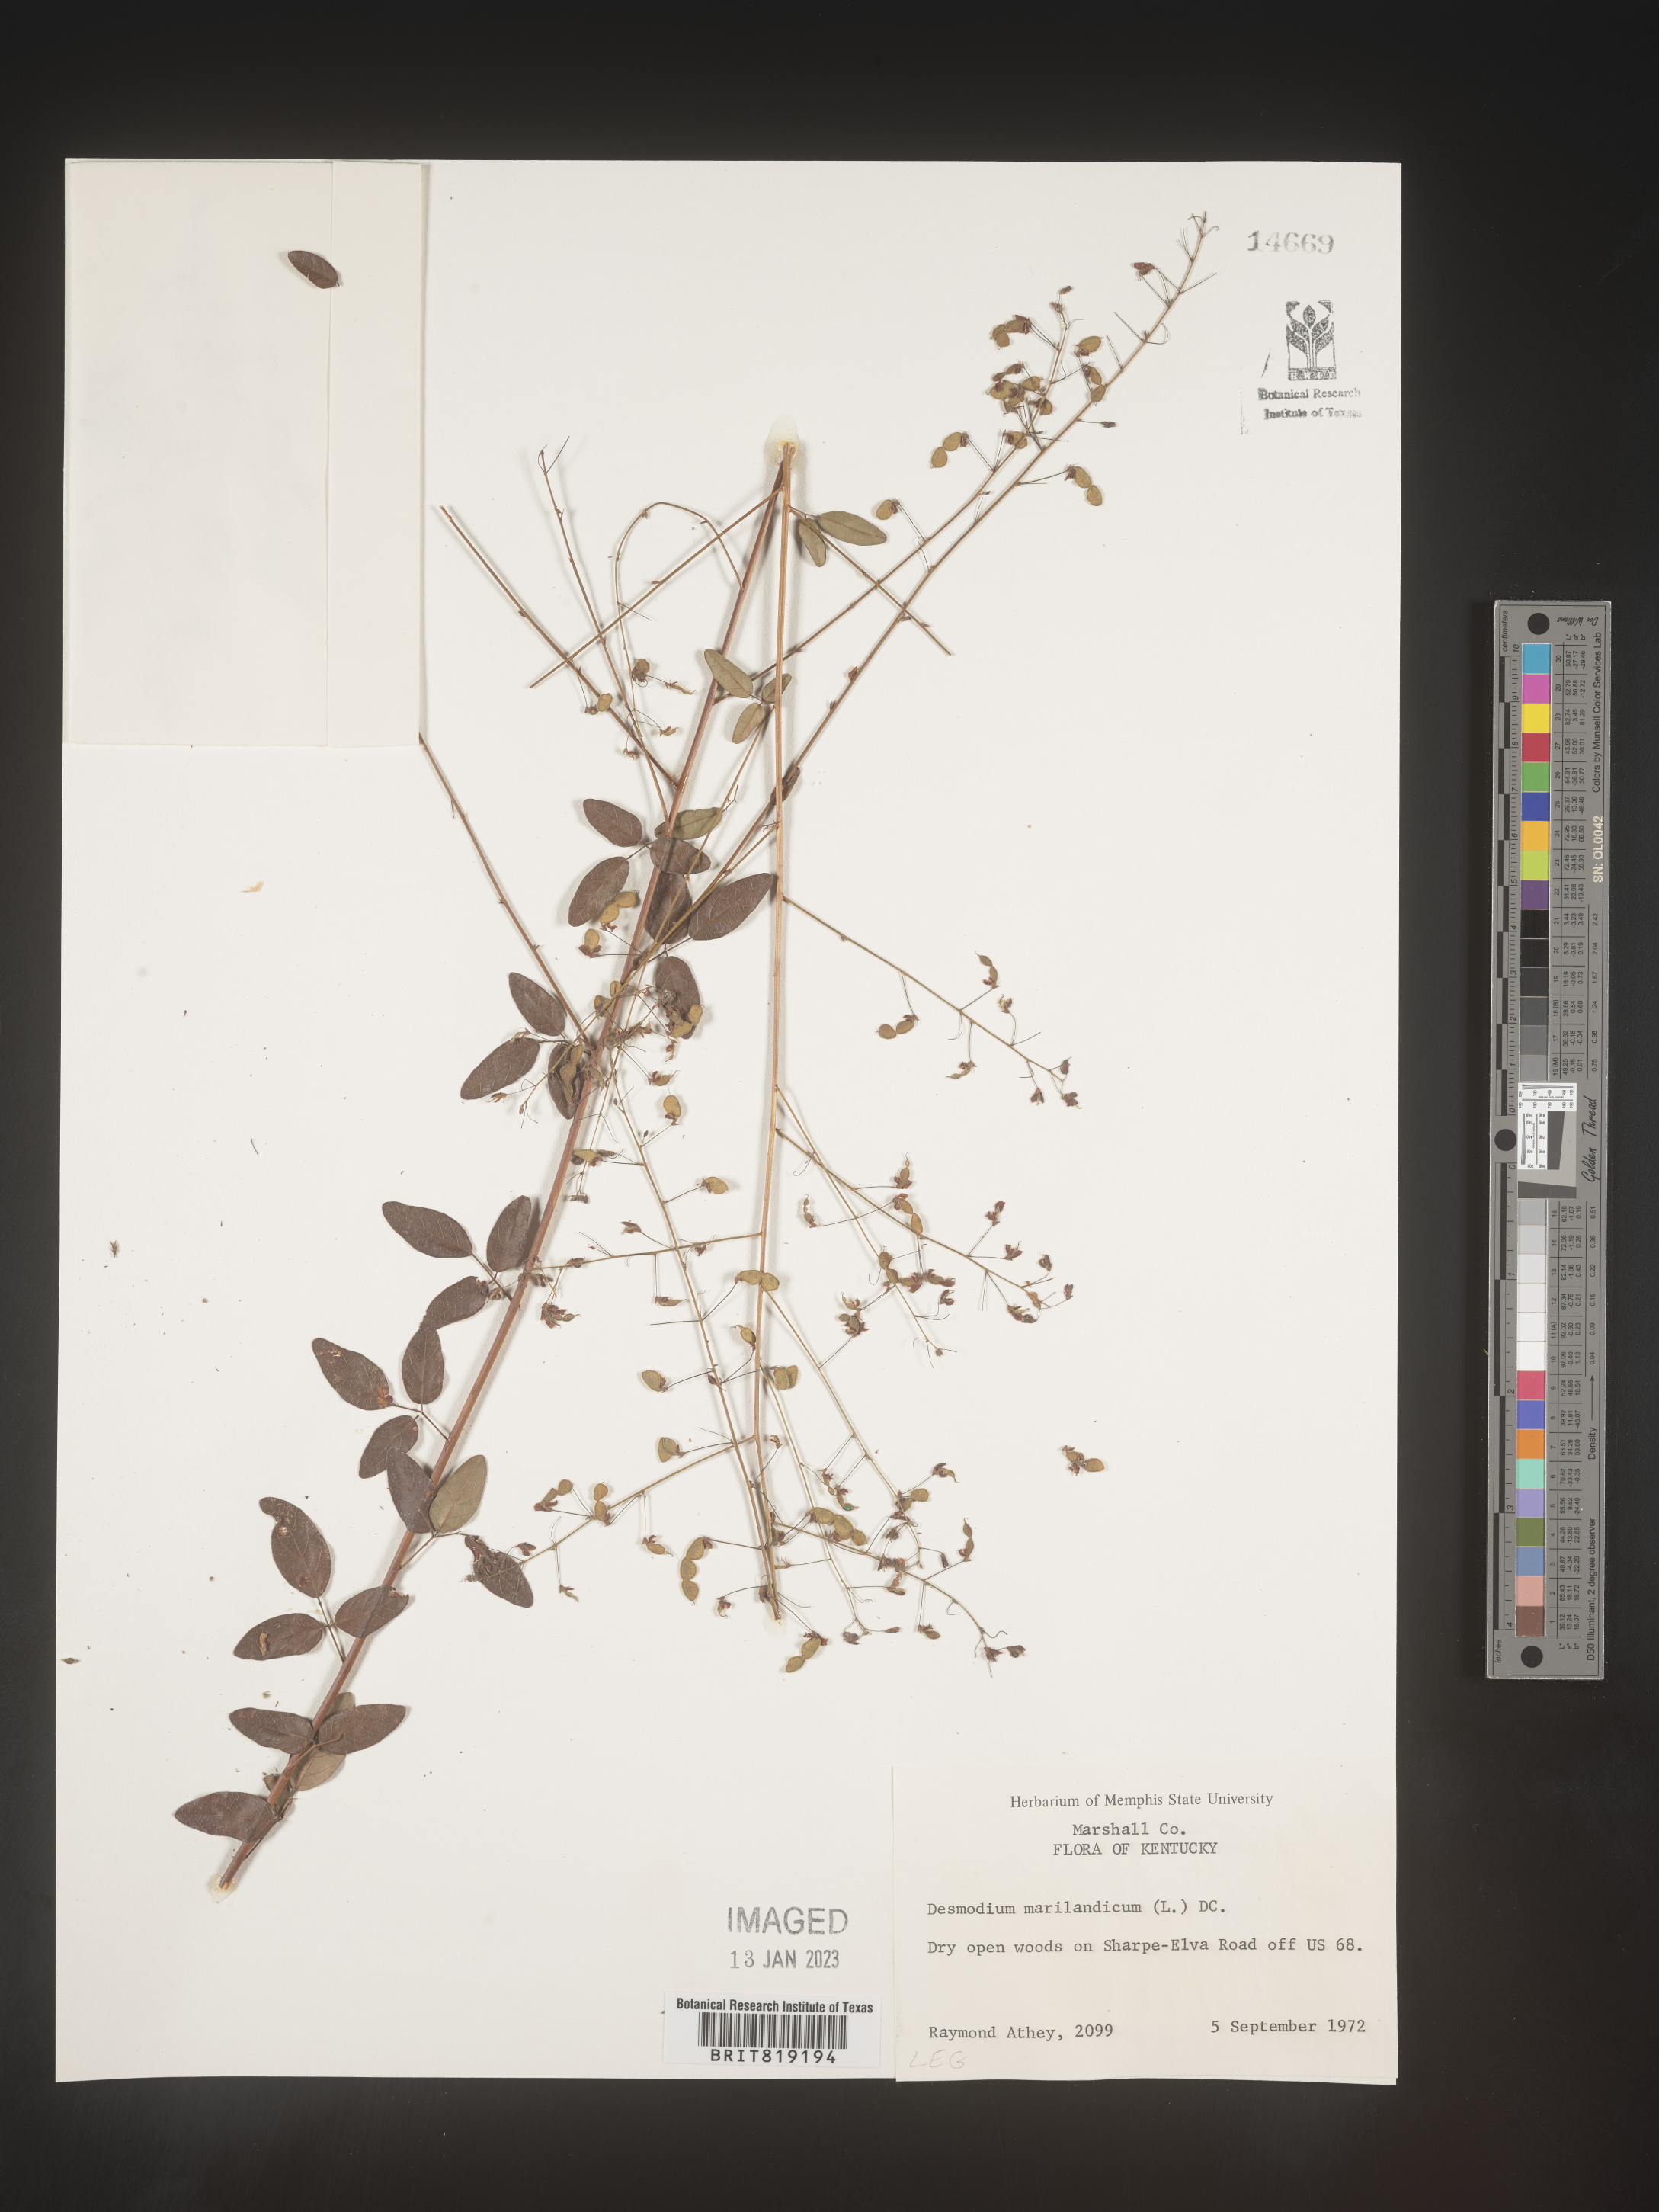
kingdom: Plantae
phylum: Tracheophyta
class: Magnoliopsida
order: Fabales
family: Fabaceae
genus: Desmodium
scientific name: Desmodium marilandicum
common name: Maryland tick-trefoil
